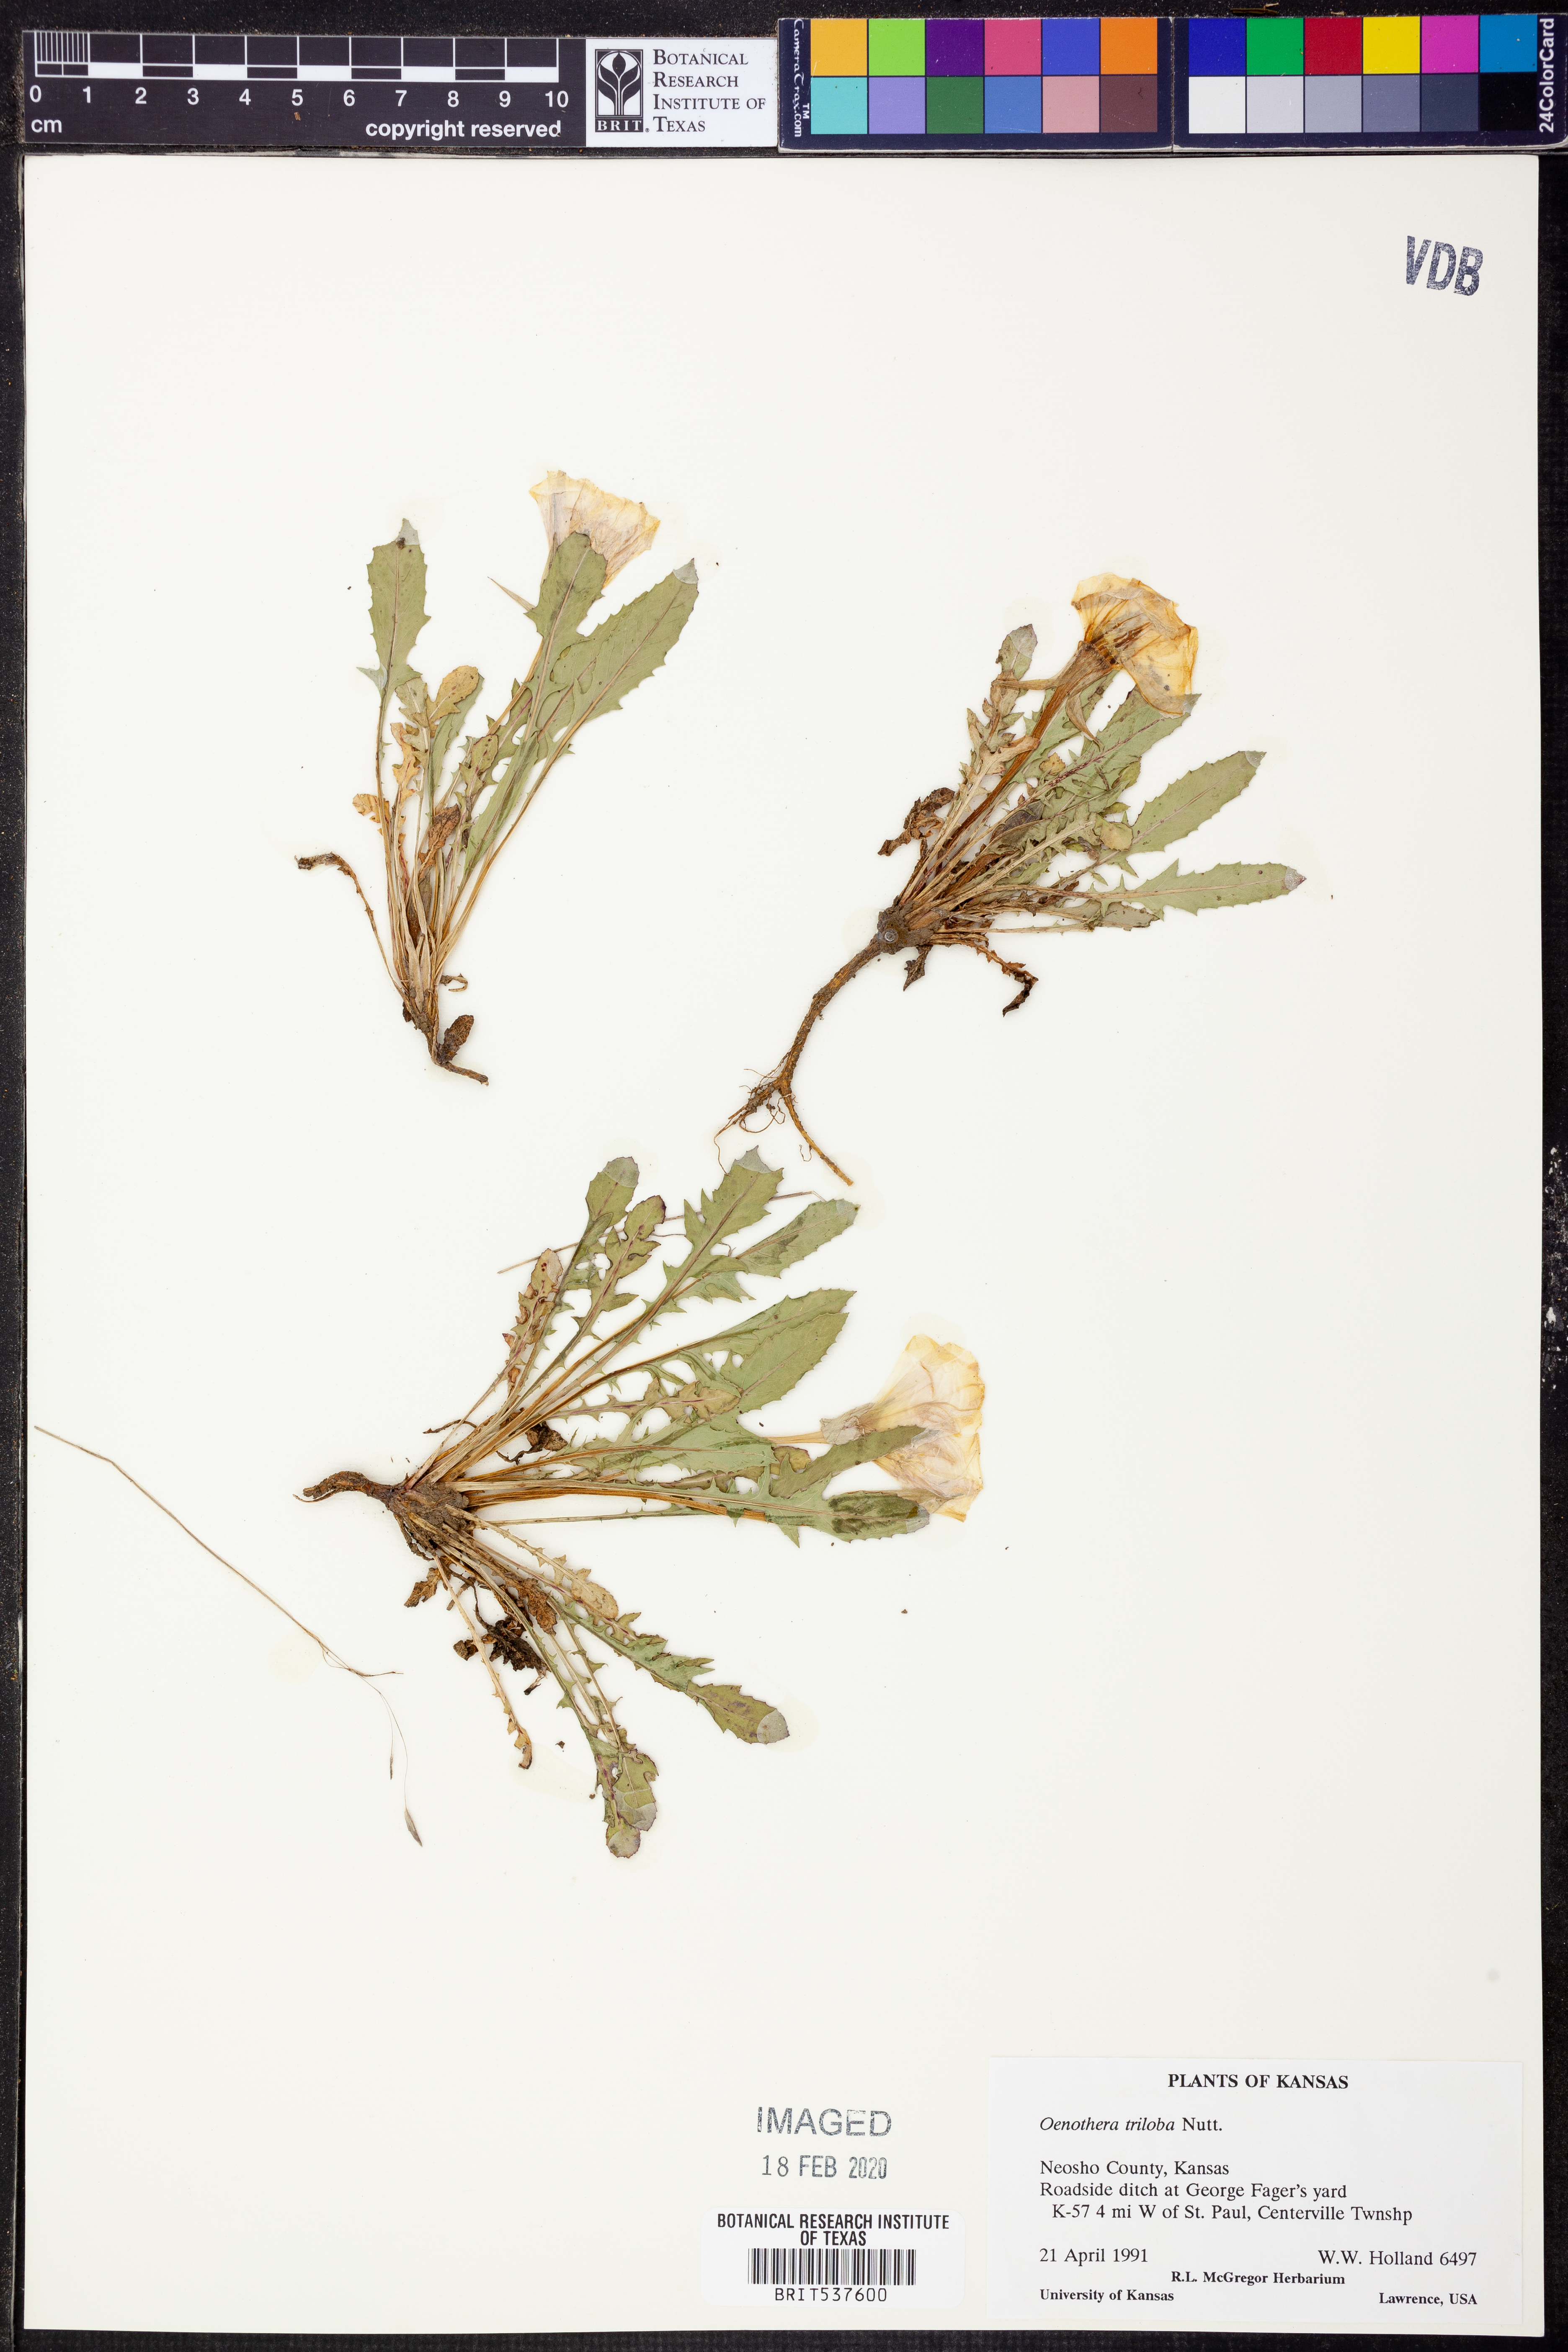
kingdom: Plantae
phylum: Tracheophyta
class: Magnoliopsida
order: Myrtales
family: Onagraceae
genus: Oenothera
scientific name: Oenothera triloba
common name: Sessile evening-primrose
